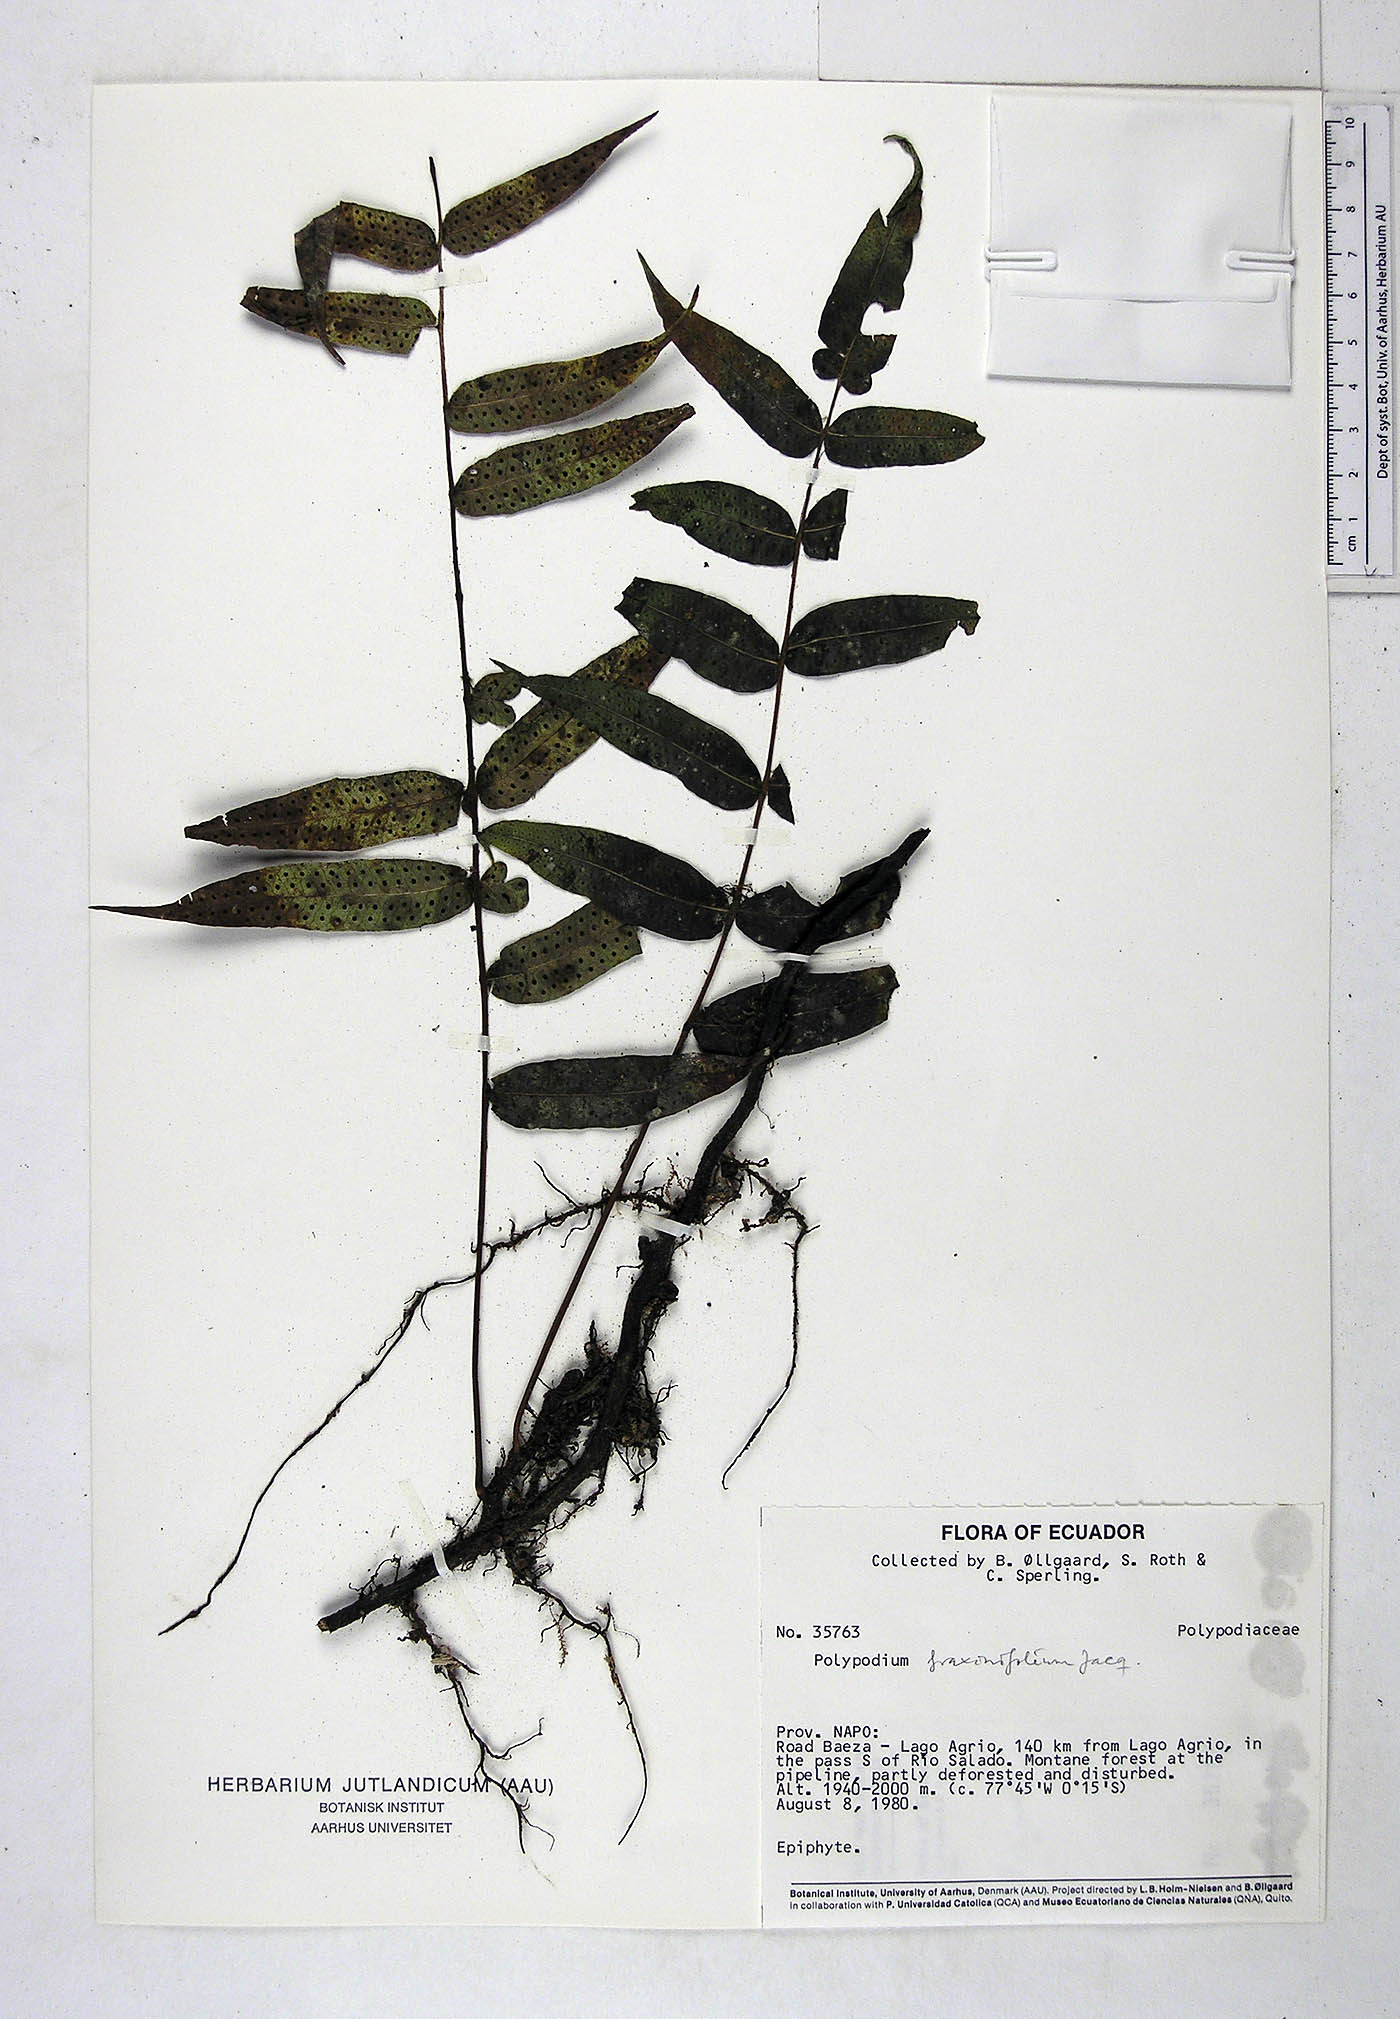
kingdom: Plantae
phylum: Tracheophyta
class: Polypodiopsida
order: Polypodiales
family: Polypodiaceae
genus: Serpocaulon
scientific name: Serpocaulon fraxinifolium
